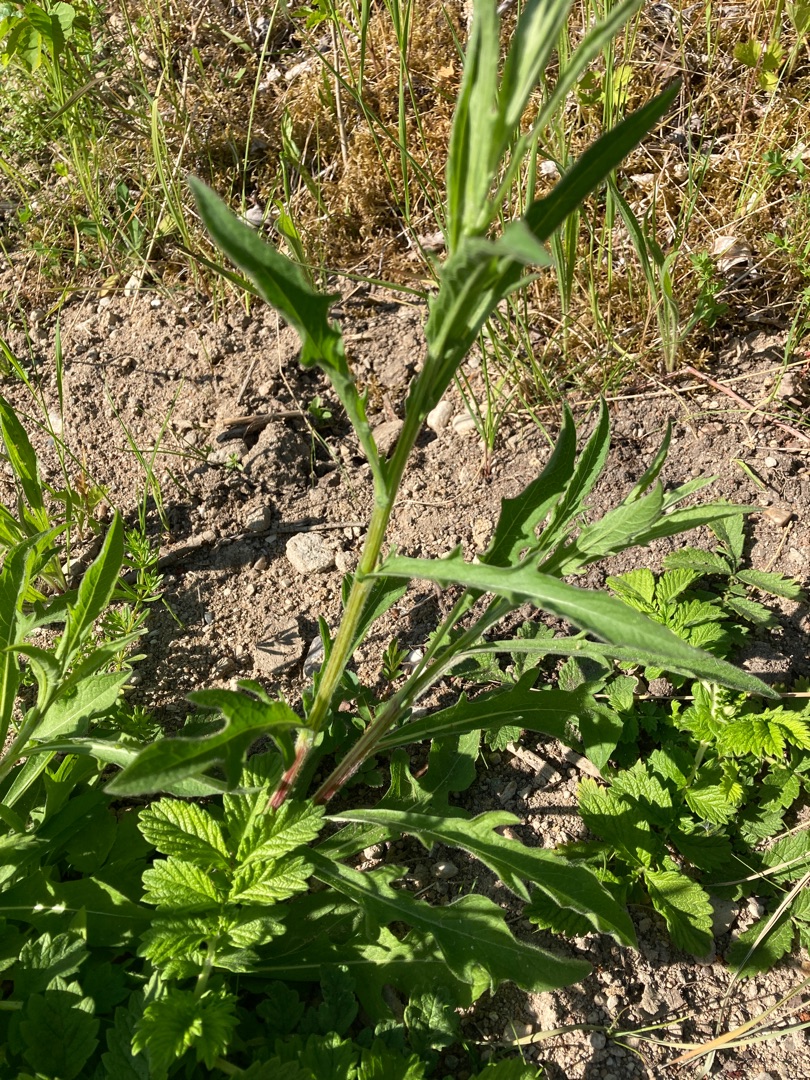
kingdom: Plantae
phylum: Tracheophyta
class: Magnoliopsida
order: Asterales
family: Asteraceae
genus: Centaurea
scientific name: Centaurea jacea
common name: Almindelig knopurt
